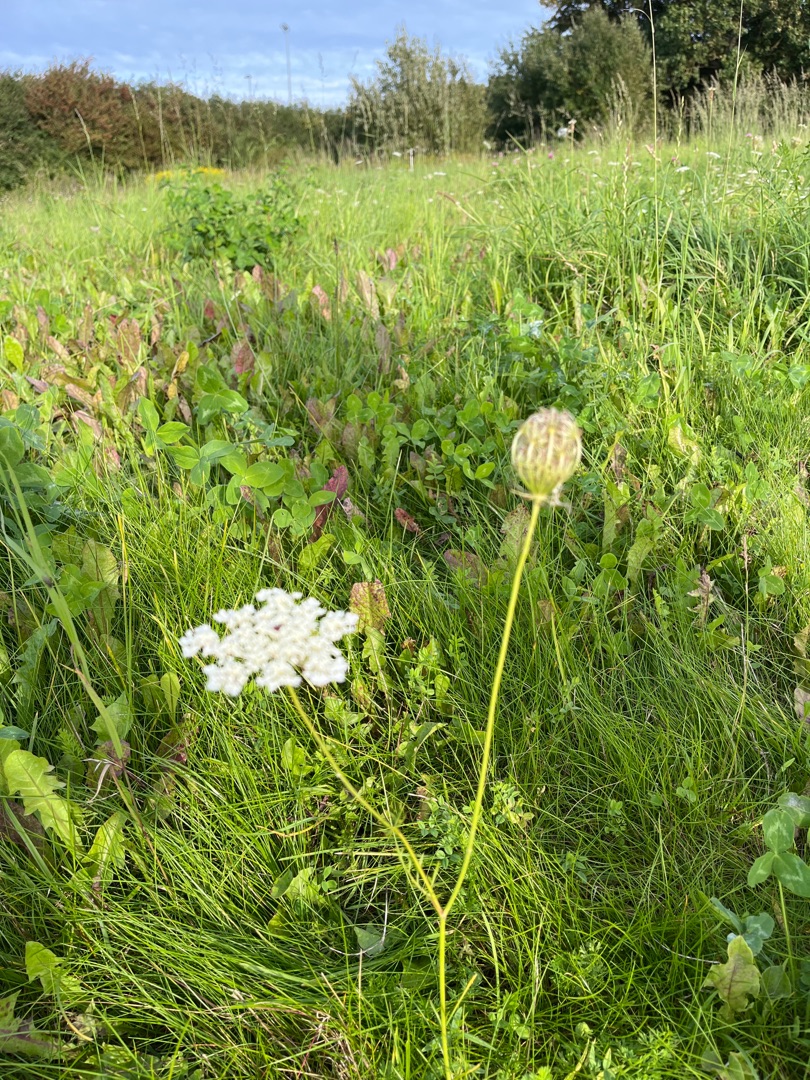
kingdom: Plantae
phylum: Tracheophyta
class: Magnoliopsida
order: Apiales
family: Apiaceae
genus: Daucus
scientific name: Daucus carota
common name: Gulerod
